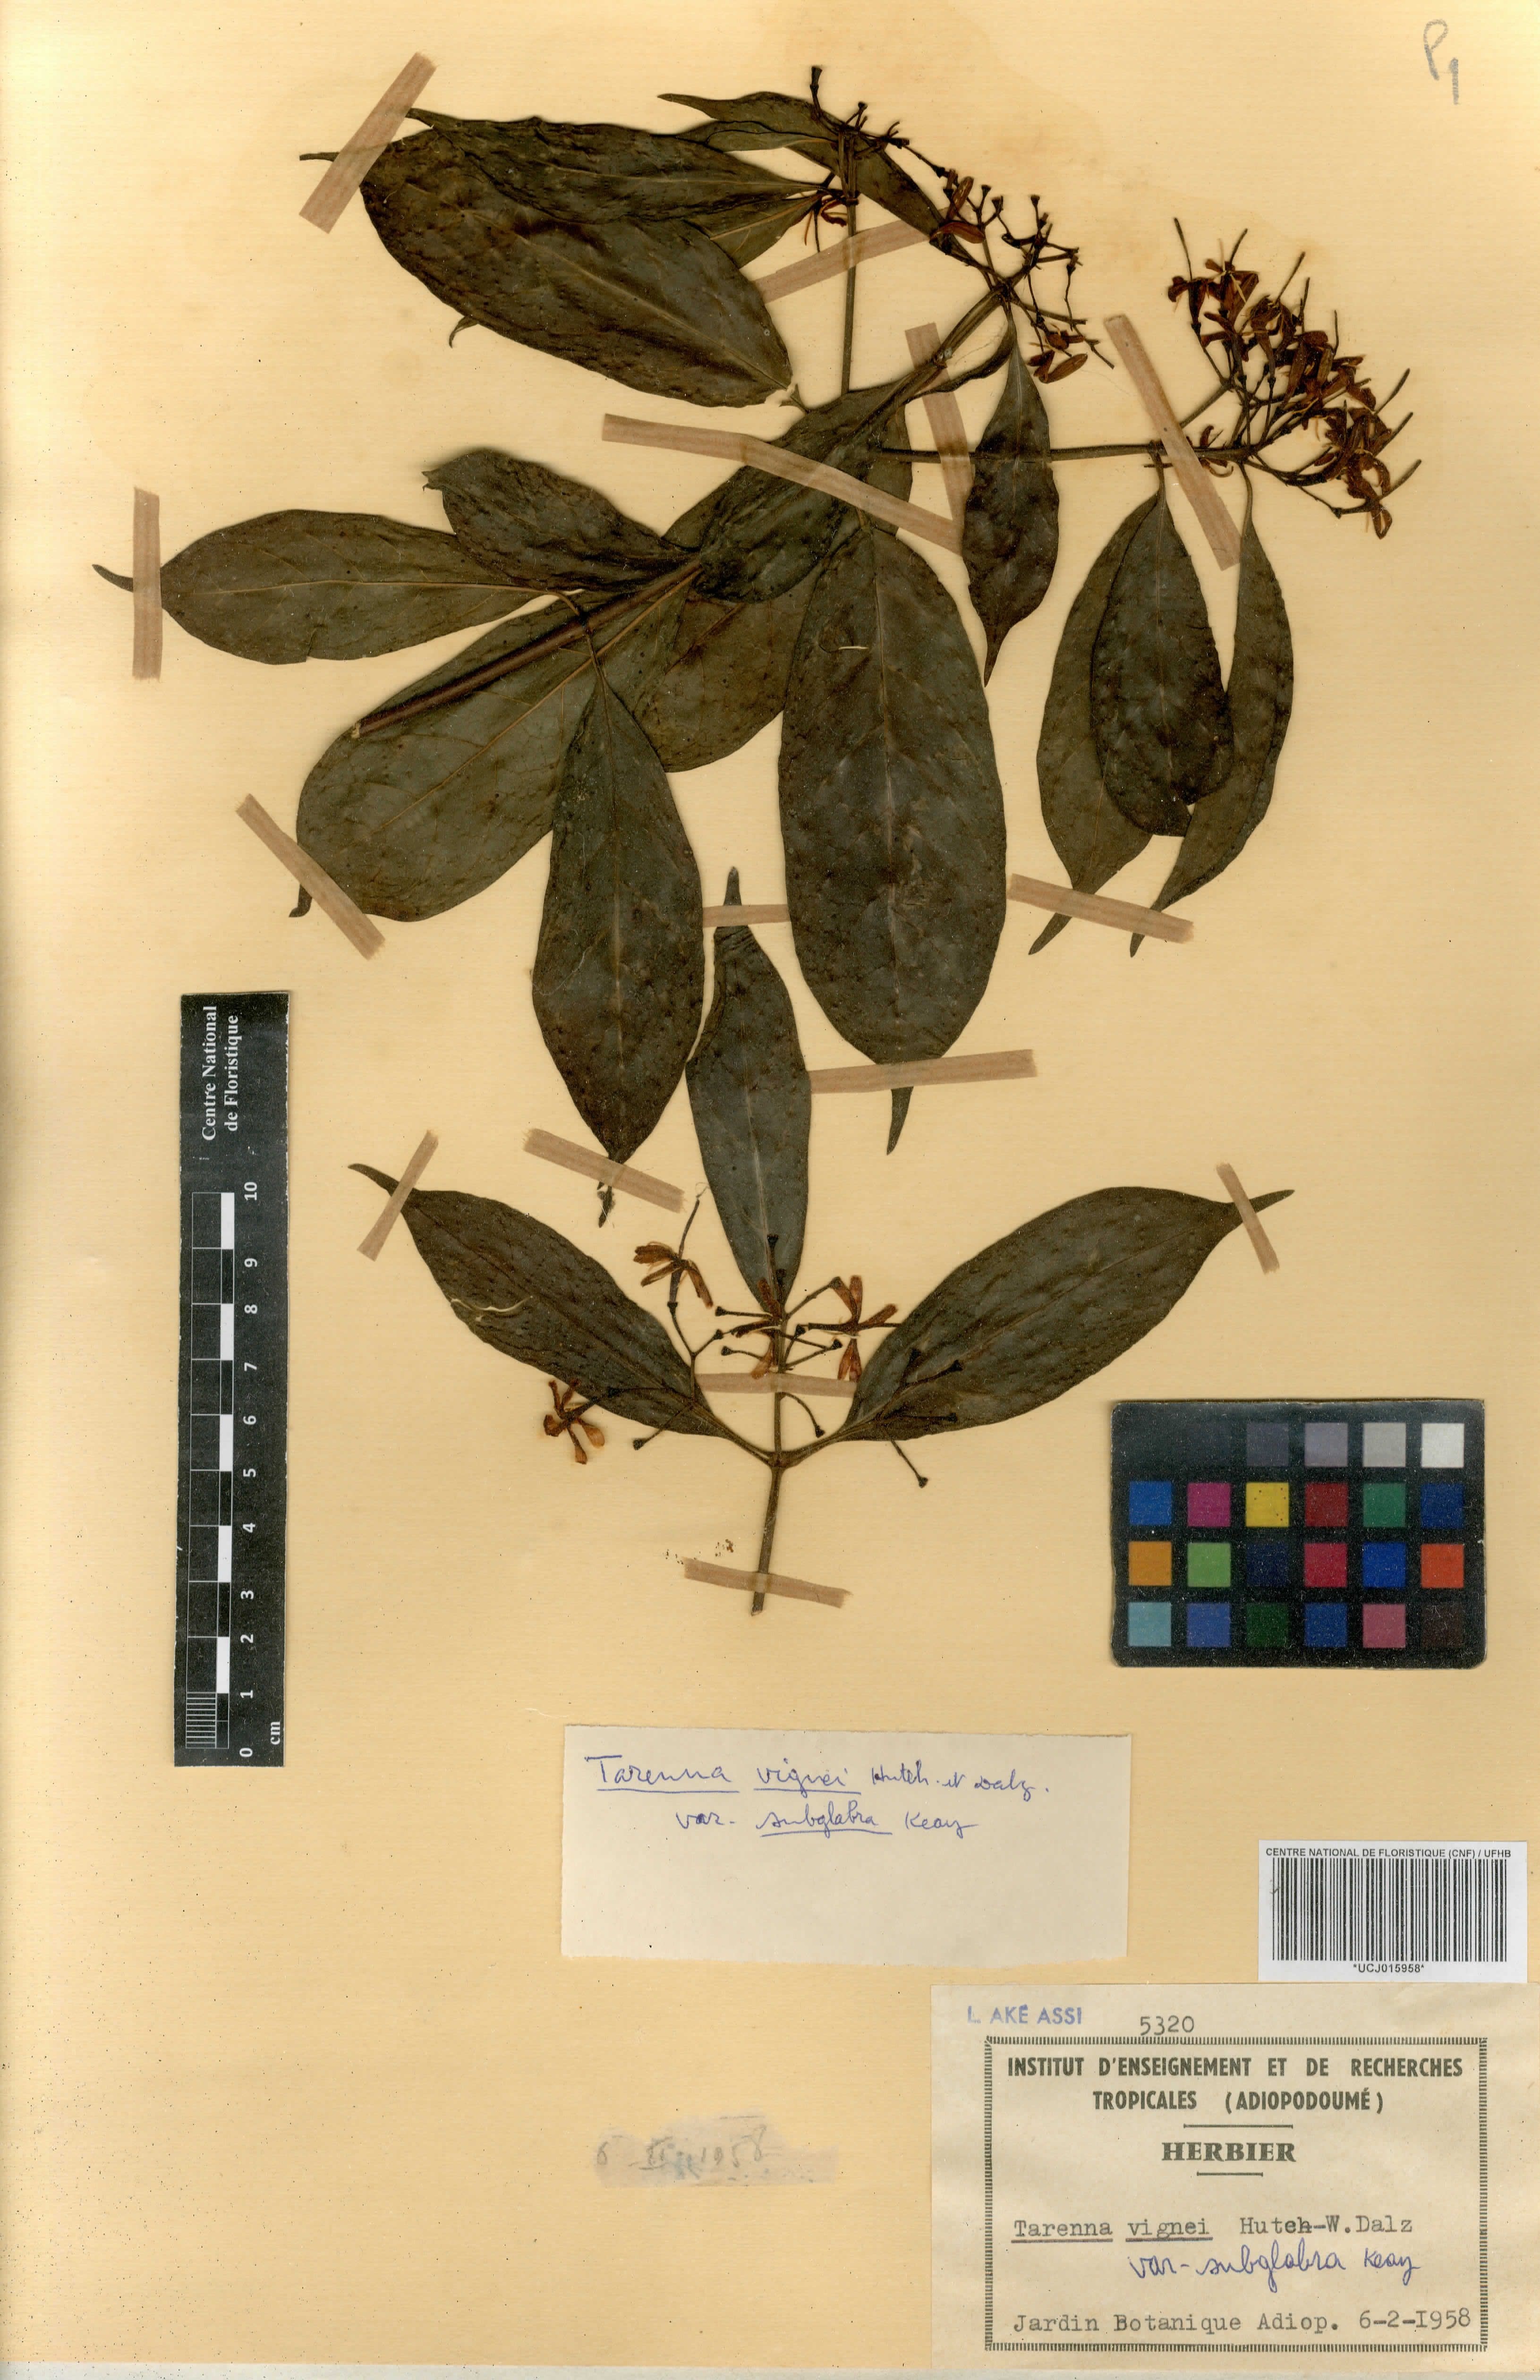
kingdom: Plantae
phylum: Tracheophyta
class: Magnoliopsida
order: Gentianales
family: Rubiaceae
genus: Tarenna
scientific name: Tarenna vignei
